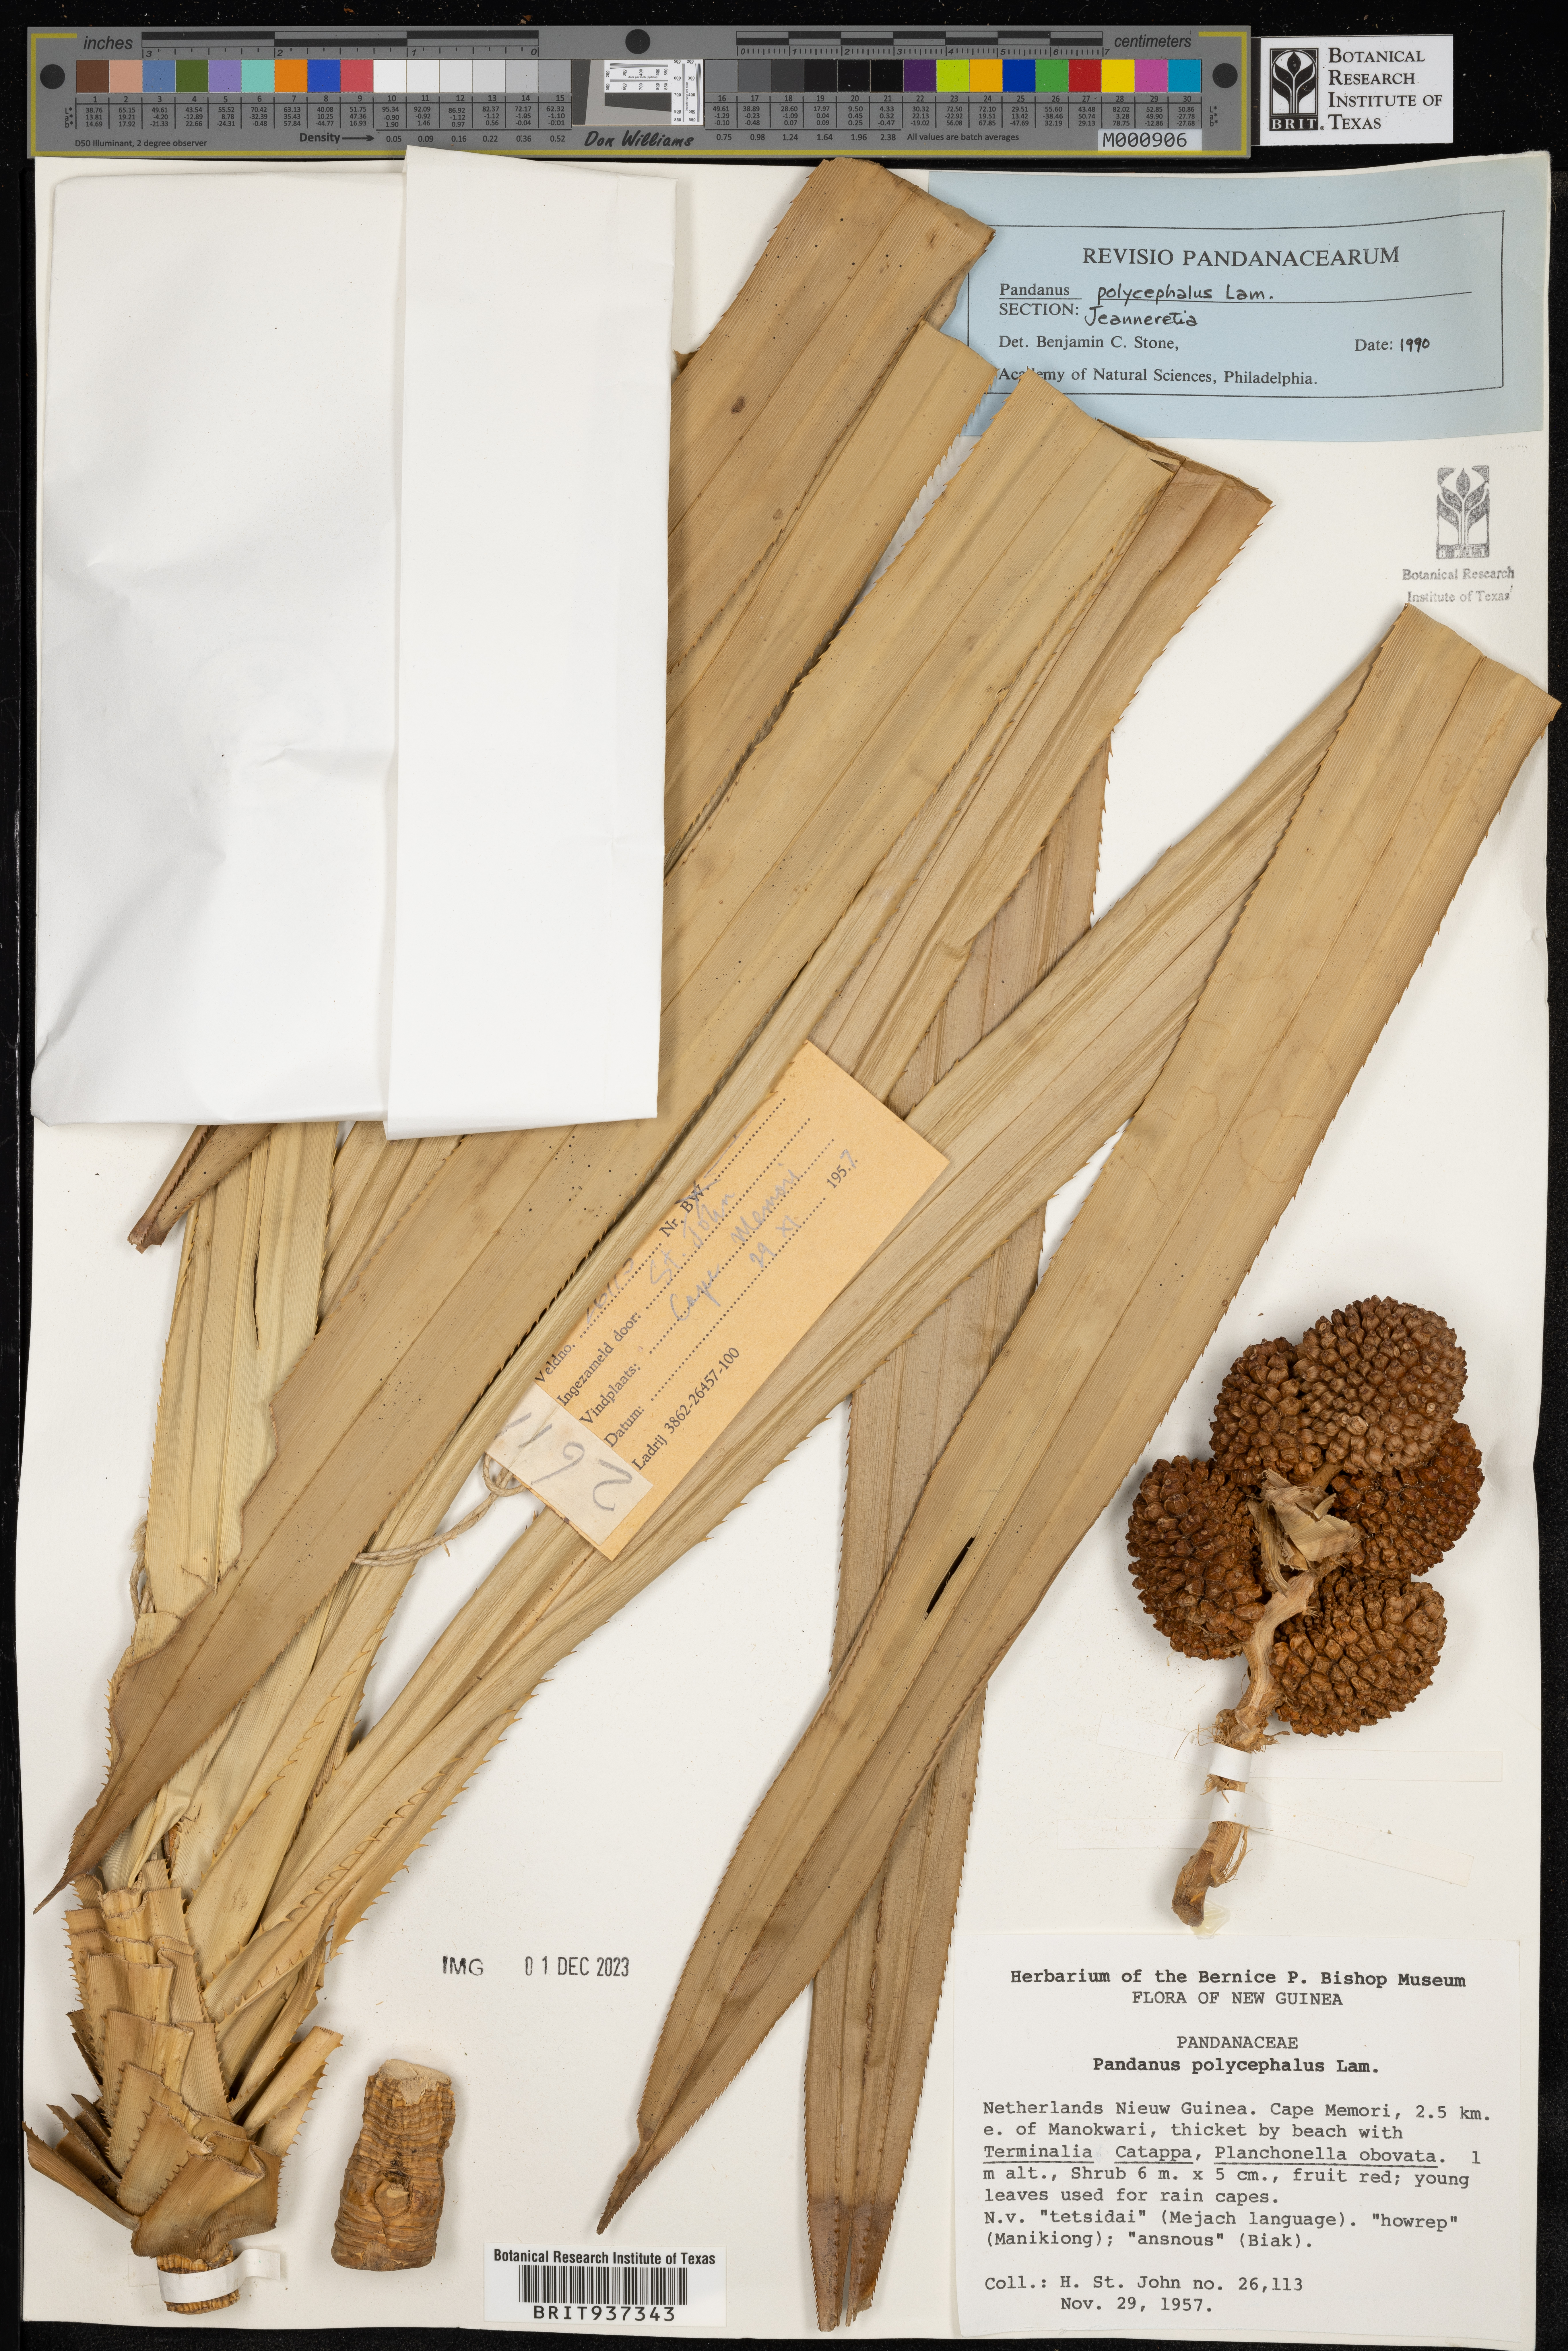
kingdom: Plantae
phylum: Tracheophyta
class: Liliopsida
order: Pandanales
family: Pandanaceae
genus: Pandanus
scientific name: Pandanus
